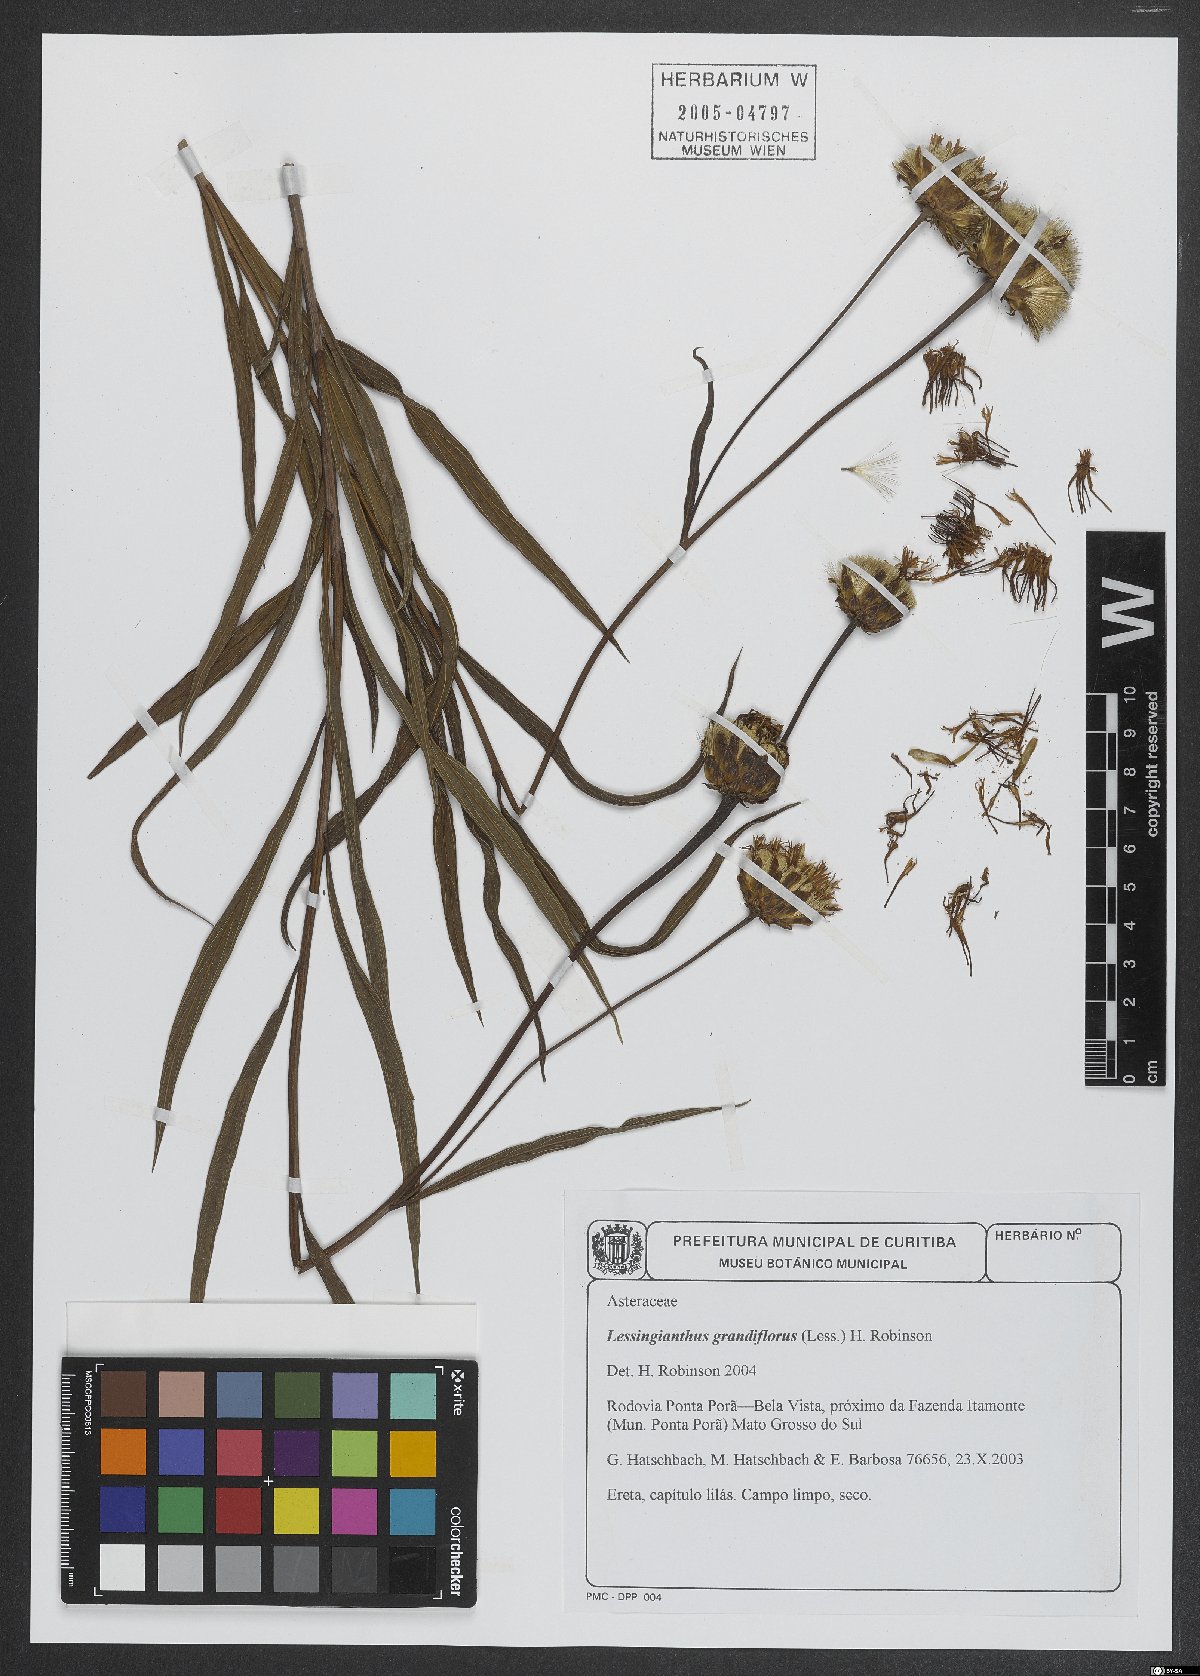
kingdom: Plantae
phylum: Tracheophyta
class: Magnoliopsida
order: Asterales
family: Asteraceae
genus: Lessingianthus
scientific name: Lessingianthus grandiflorus
